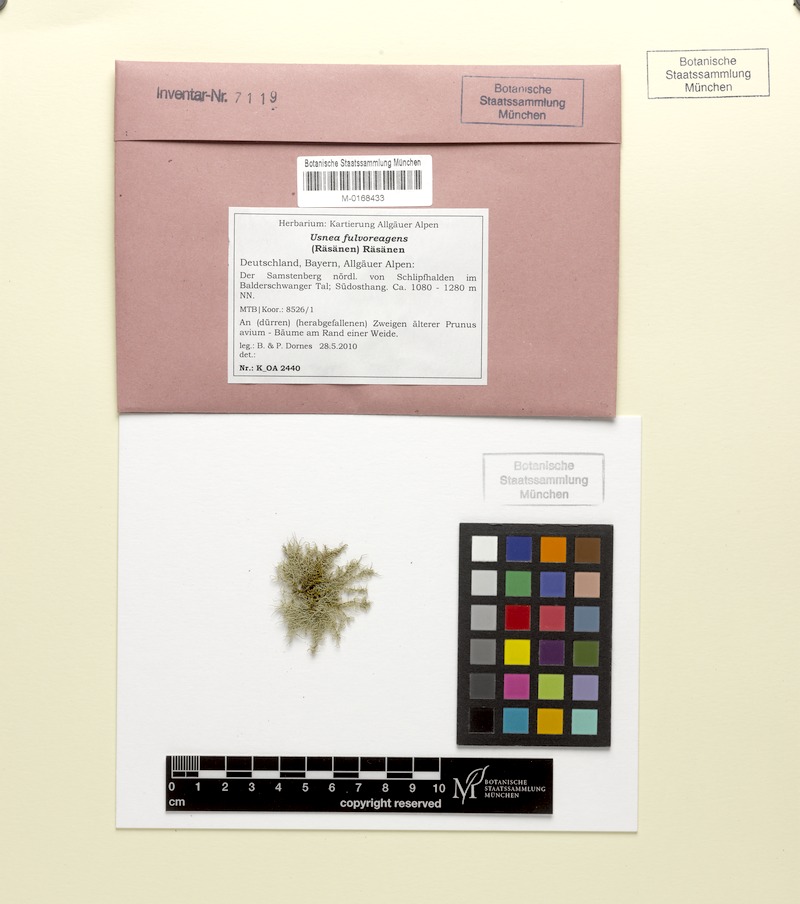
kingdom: Fungi
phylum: Ascomycota
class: Lecanoromycetes
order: Lecanorales
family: Parmeliaceae
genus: Usnea
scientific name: Usnea fulvoreagens
